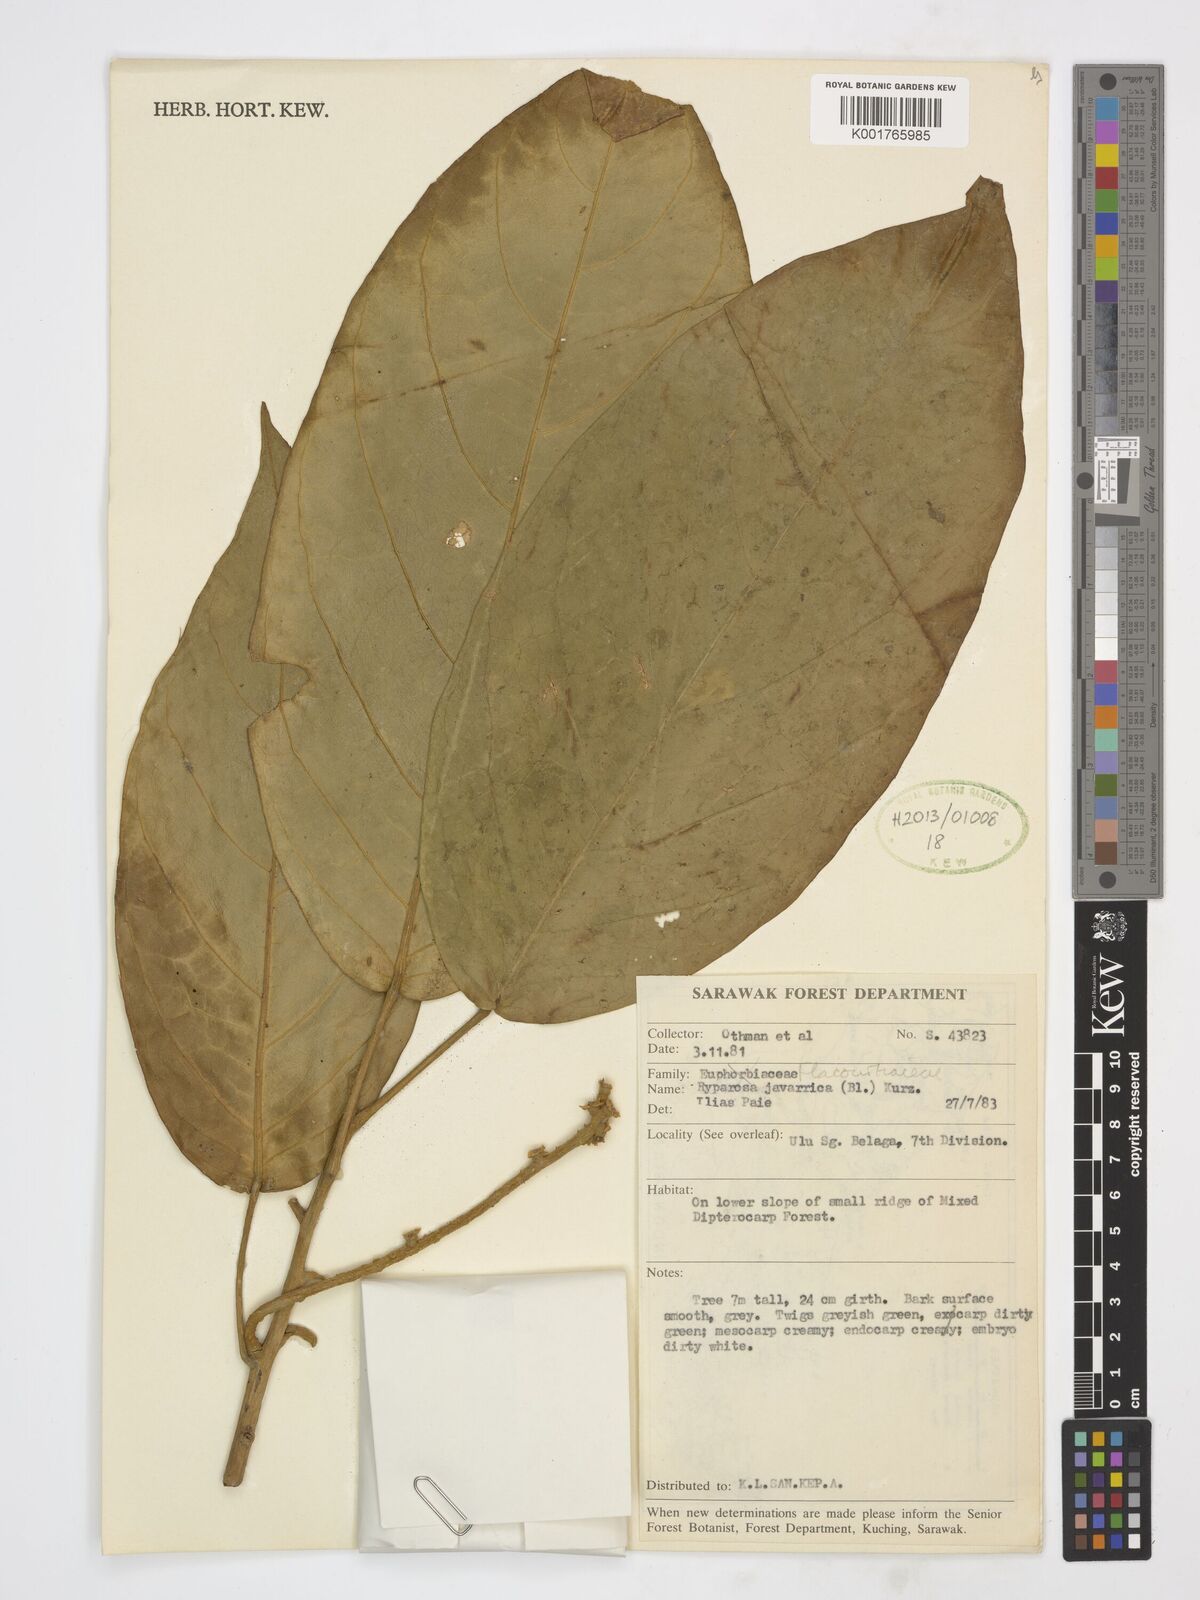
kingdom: Plantae
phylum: Tracheophyta
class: Magnoliopsida
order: Malpighiales
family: Achariaceae
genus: Ryparosa
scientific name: Ryparosa javanica
